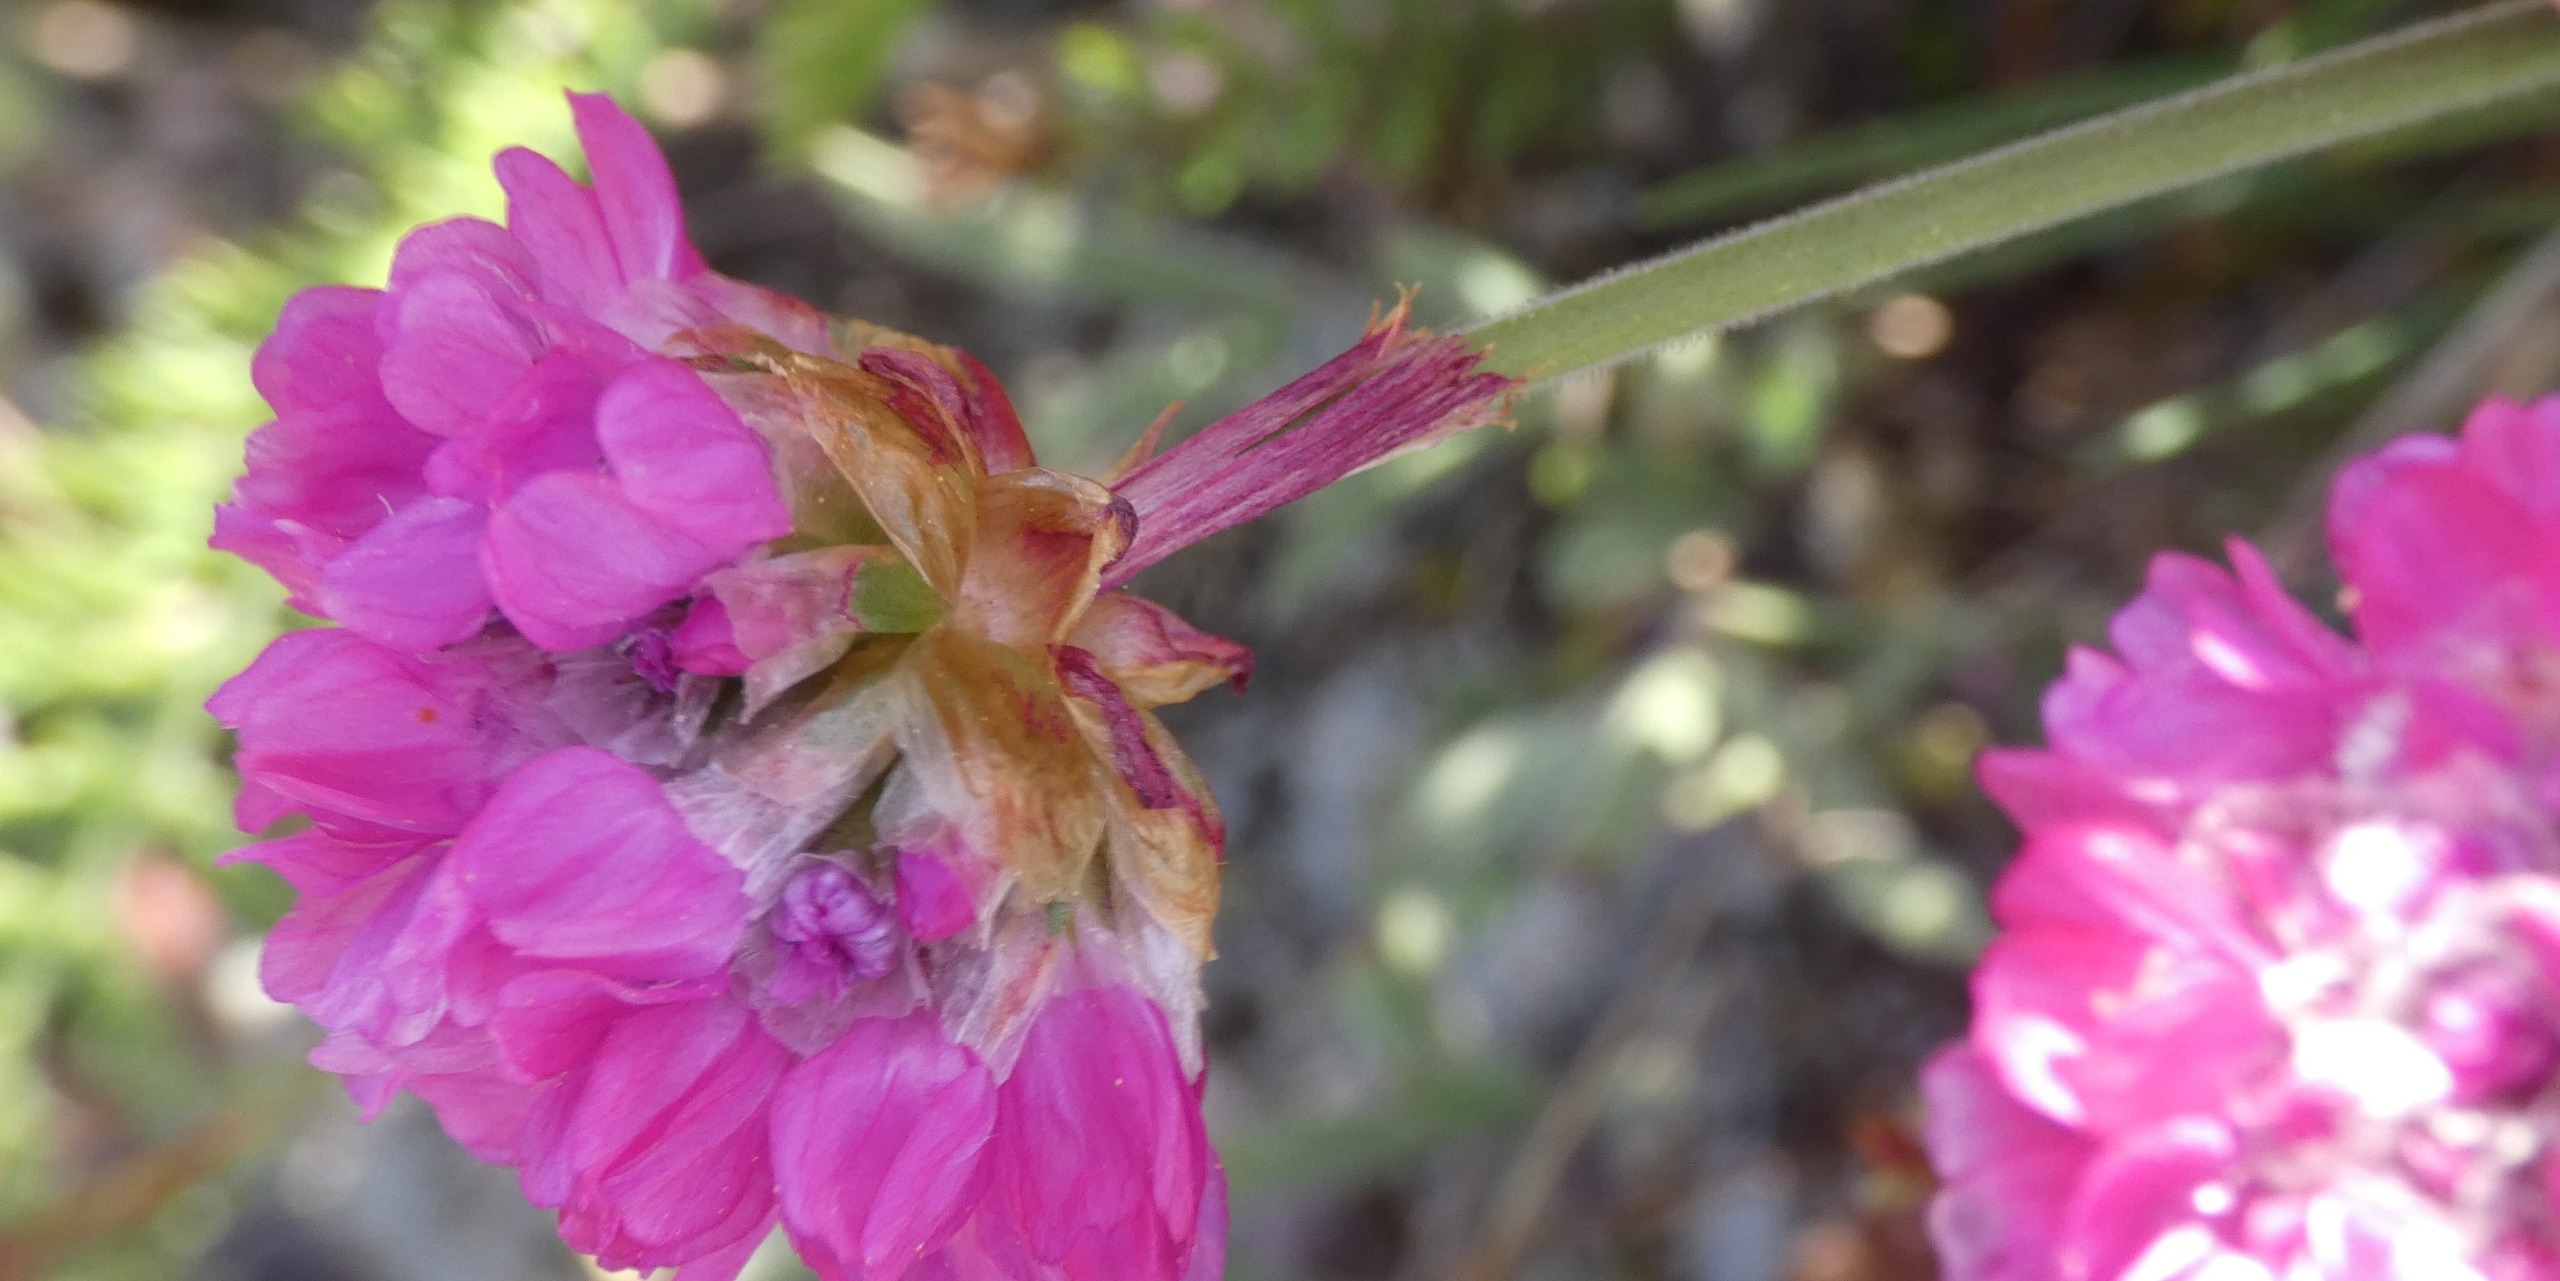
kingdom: Plantae
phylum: Tracheophyta
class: Magnoliopsida
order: Caryophyllales
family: Plumbaginaceae
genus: Armeria
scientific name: Armeria maritima
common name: Engelskgræs
